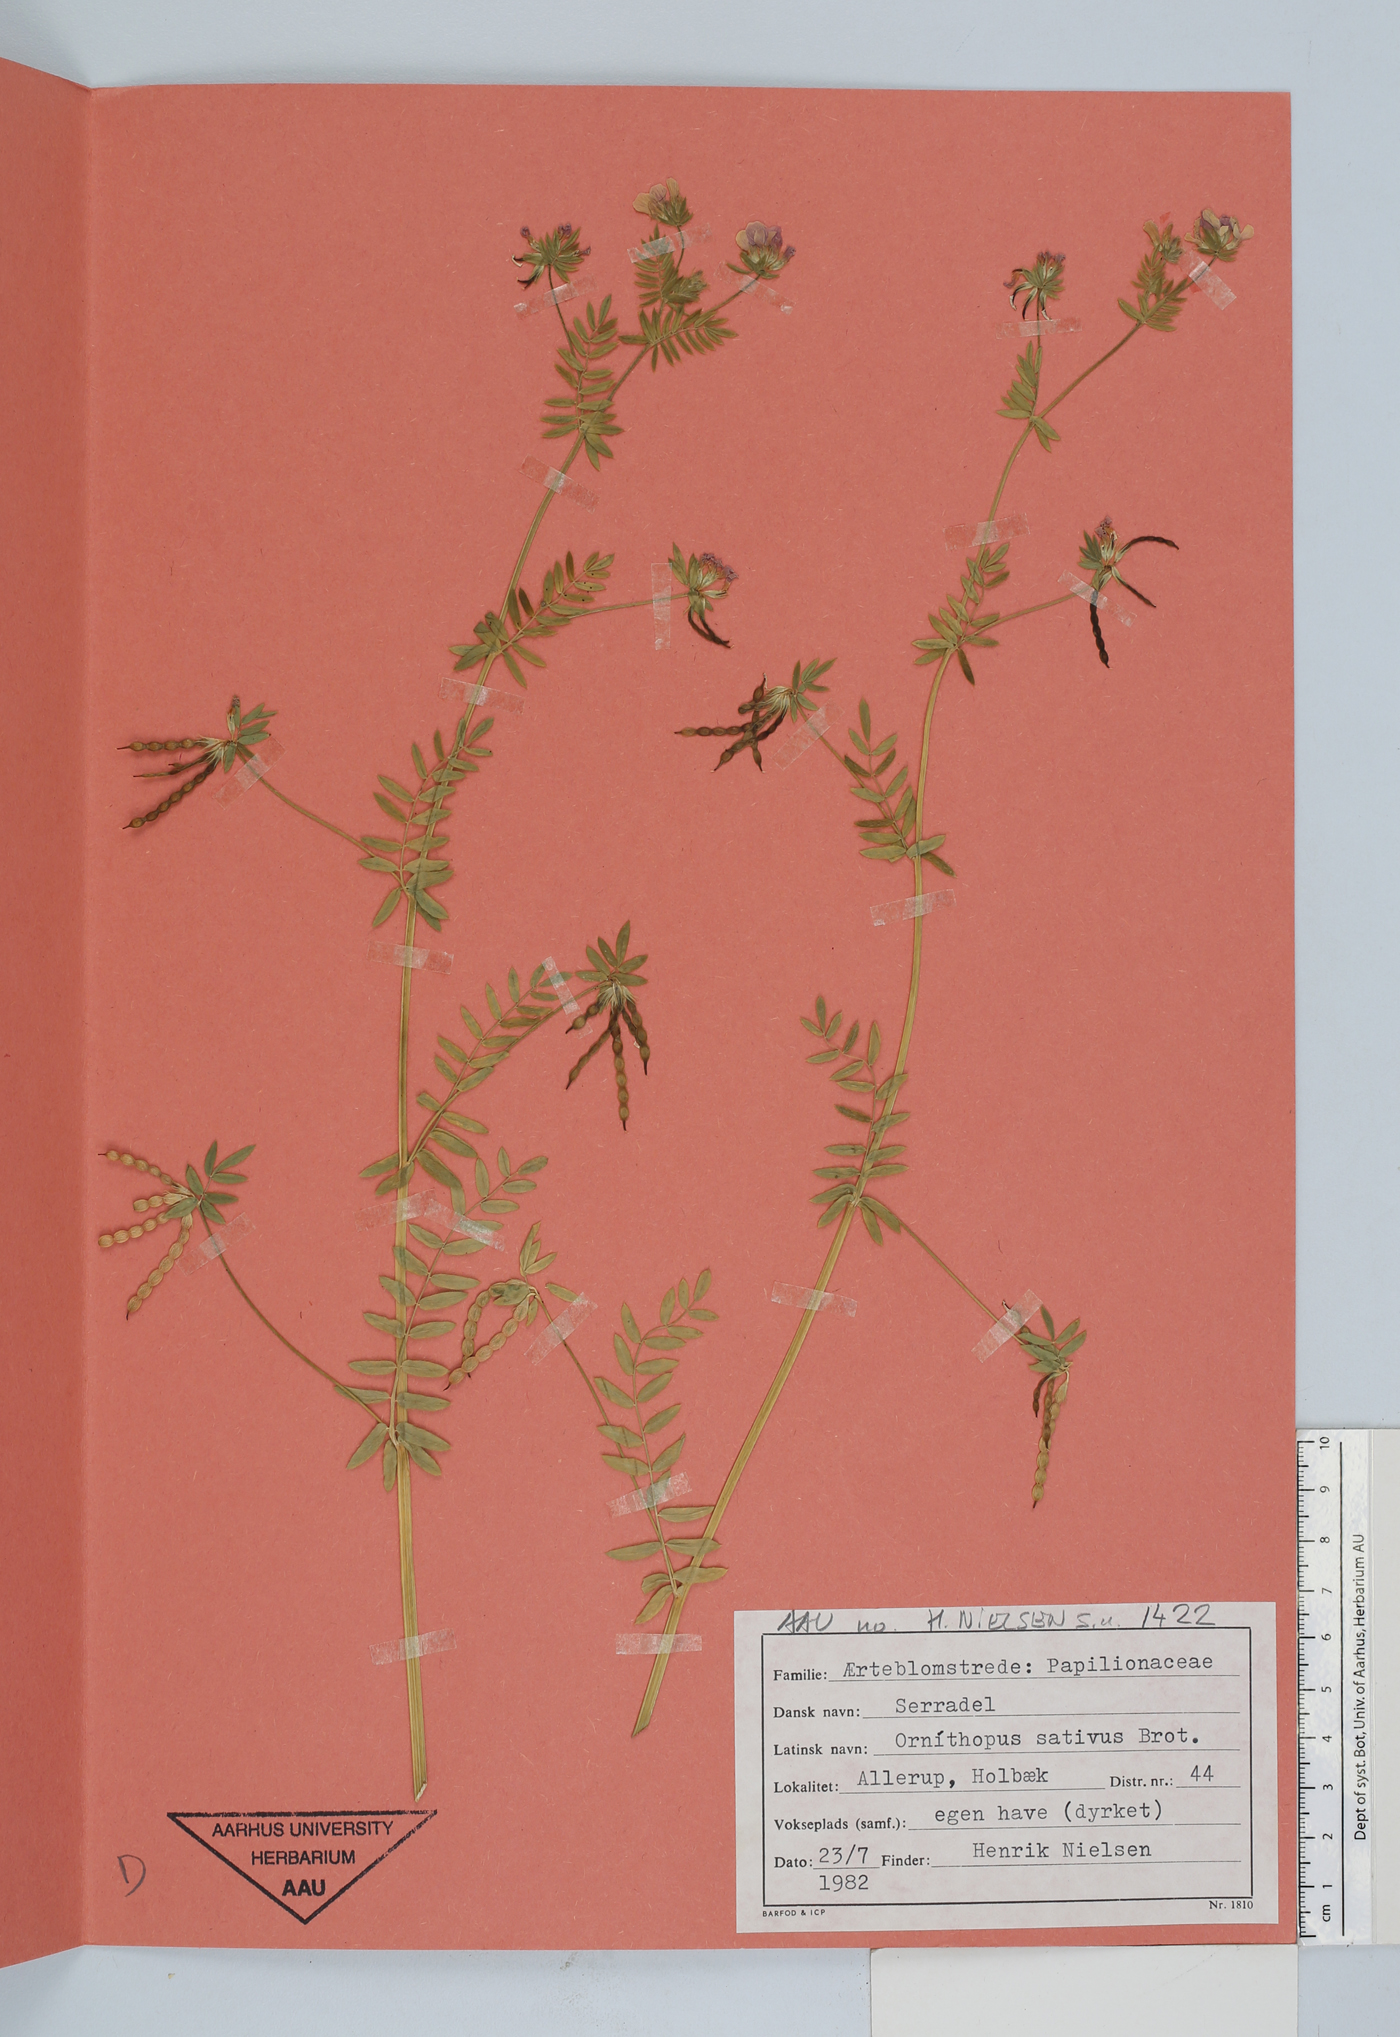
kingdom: Plantae
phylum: Tracheophyta
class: Magnoliopsida
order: Fabales
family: Fabaceae
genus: Ornithopus
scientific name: Ornithopus sativus
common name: Serradella
